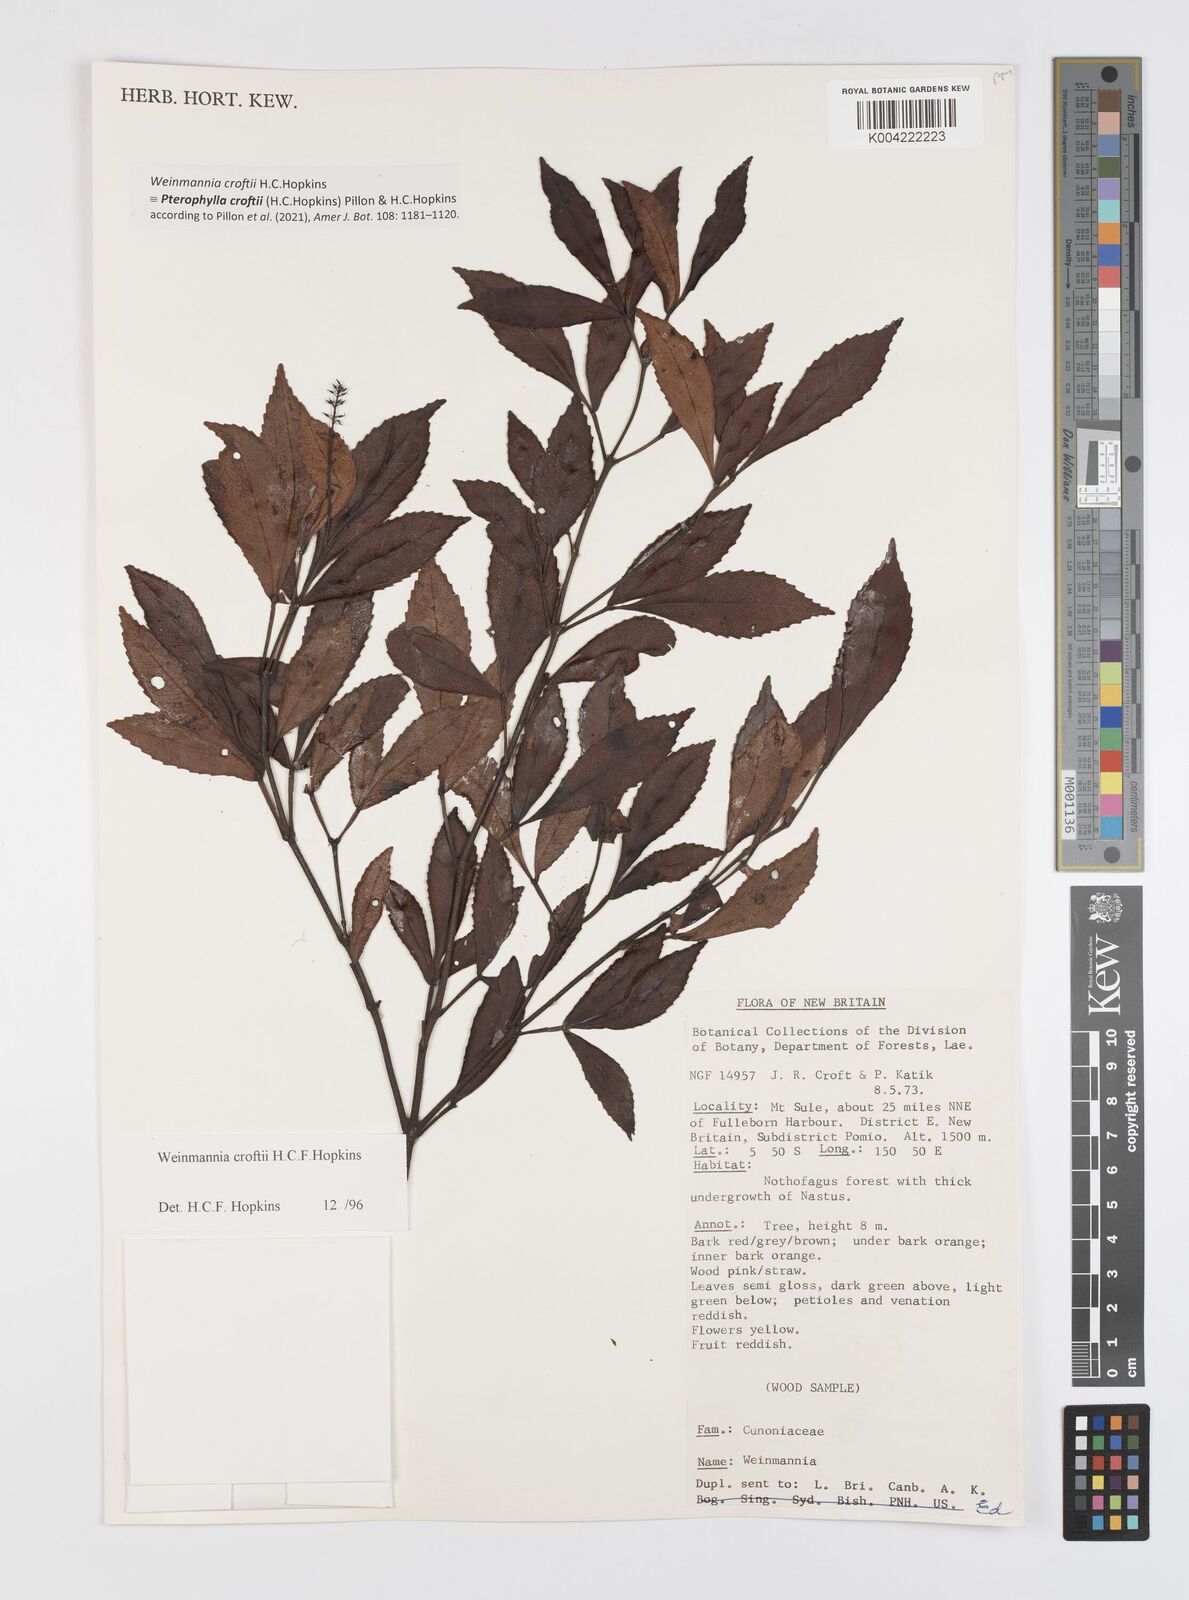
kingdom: Plantae
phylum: Tracheophyta
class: Magnoliopsida
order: Oxalidales
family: Cunoniaceae
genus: Pterophylla
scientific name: Pterophylla croftii
